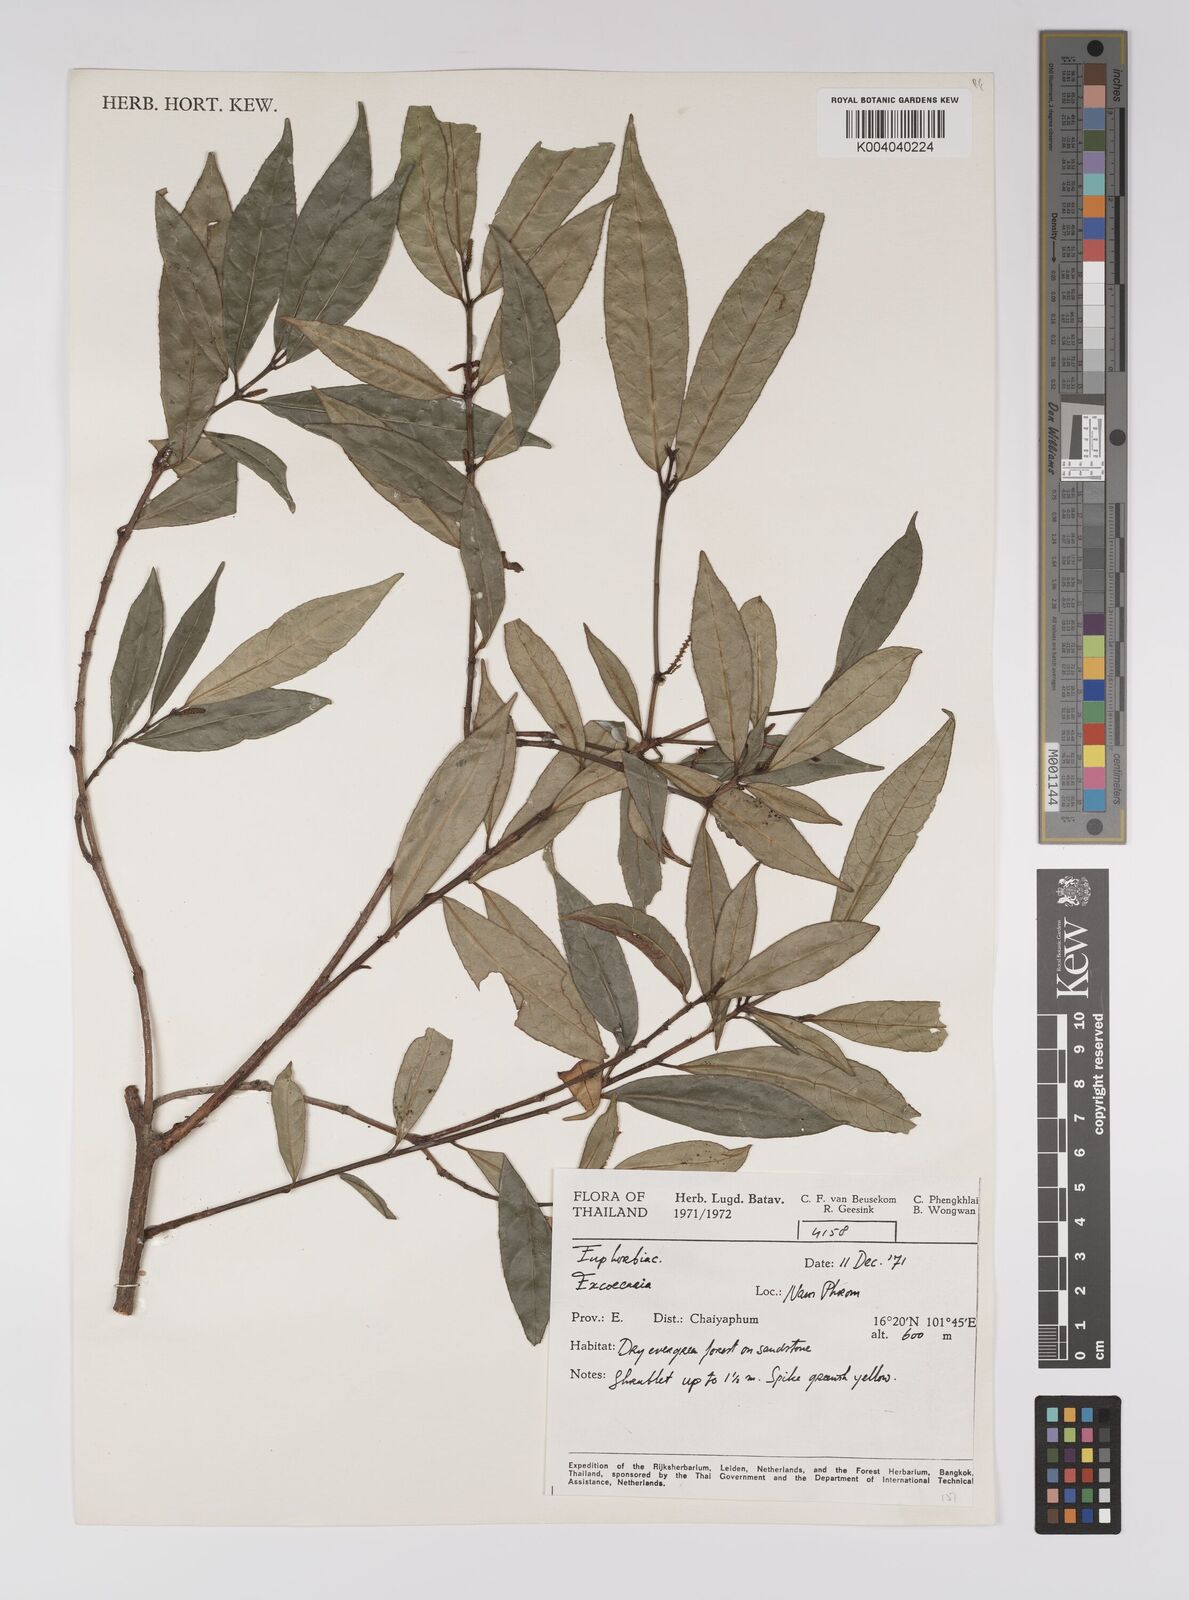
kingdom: Plantae
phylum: Tracheophyta
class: Magnoliopsida
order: Malpighiales
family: Euphorbiaceae
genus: Excoecaria
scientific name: Excoecaria cochinchinensis
